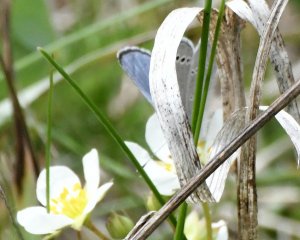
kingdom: Animalia
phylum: Arthropoda
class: Insecta
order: Lepidoptera
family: Lycaenidae
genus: Glaucopsyche
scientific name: Glaucopsyche lygdamus
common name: Silvery Blue
